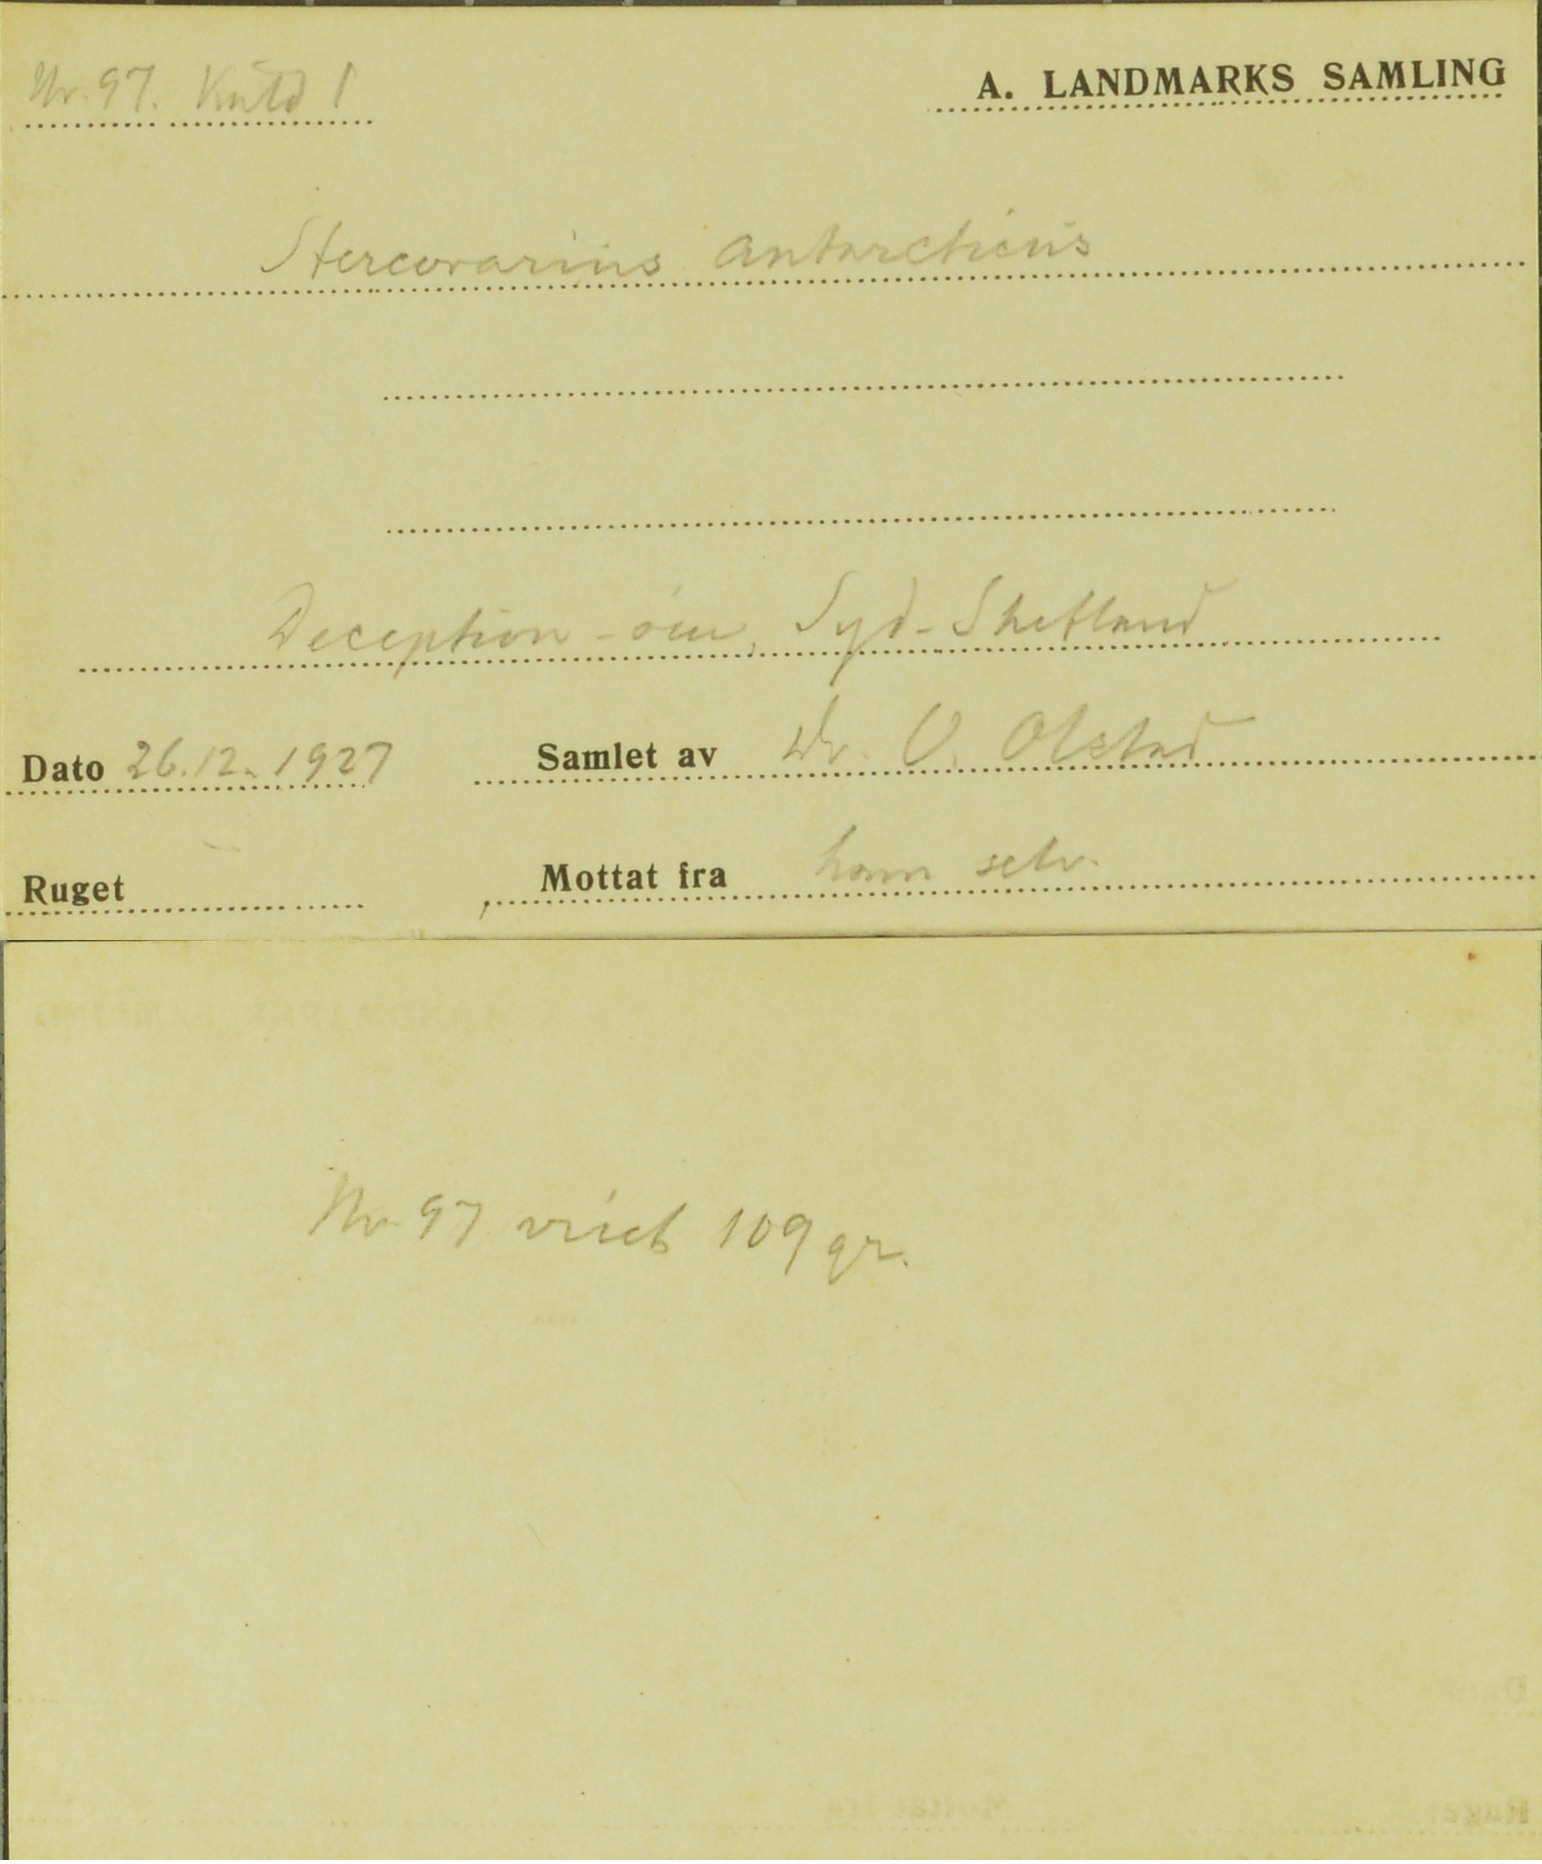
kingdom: Animalia
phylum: Chordata
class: Aves
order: Charadriiformes
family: Stercorariidae
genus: Stercorarius
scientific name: Stercorarius antarcticus
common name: Brown skua
